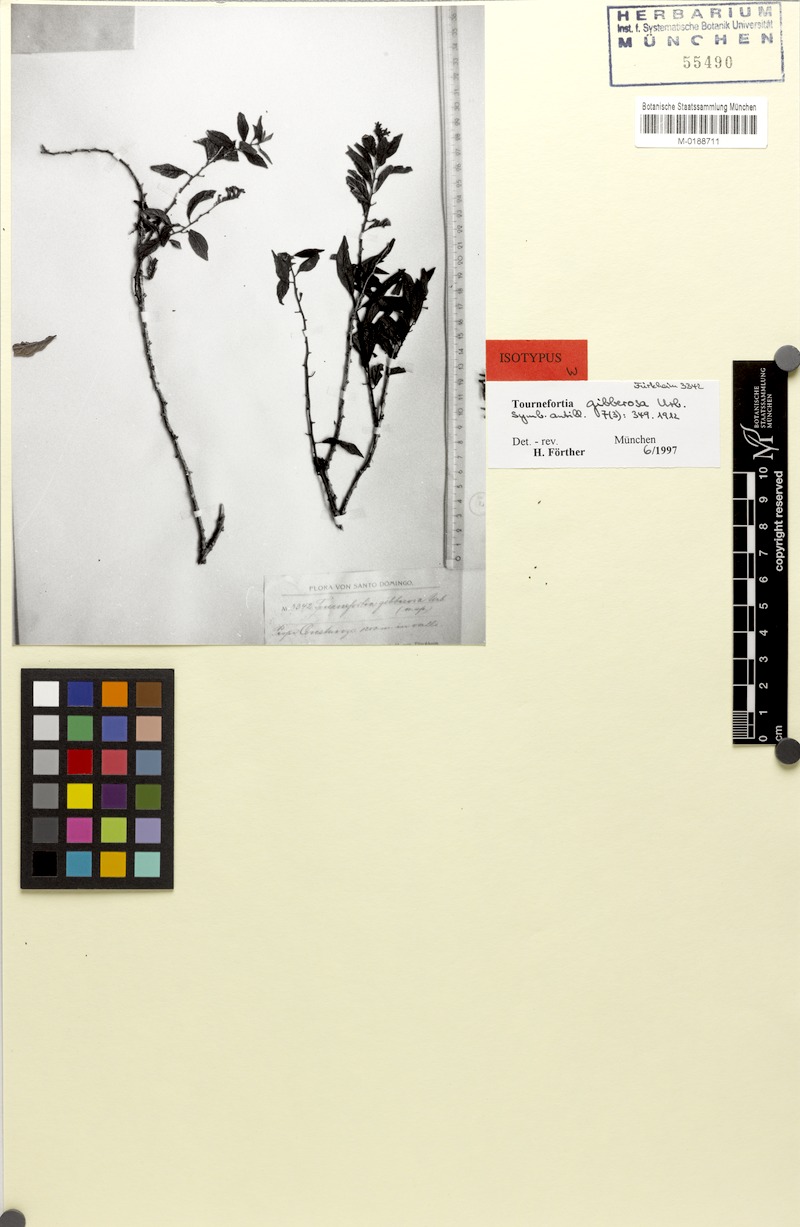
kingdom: Plantae
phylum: Tracheophyta
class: Magnoliopsida
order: Boraginales
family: Heliotropiaceae
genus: Heliotropium
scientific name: Heliotropium gibberosum
